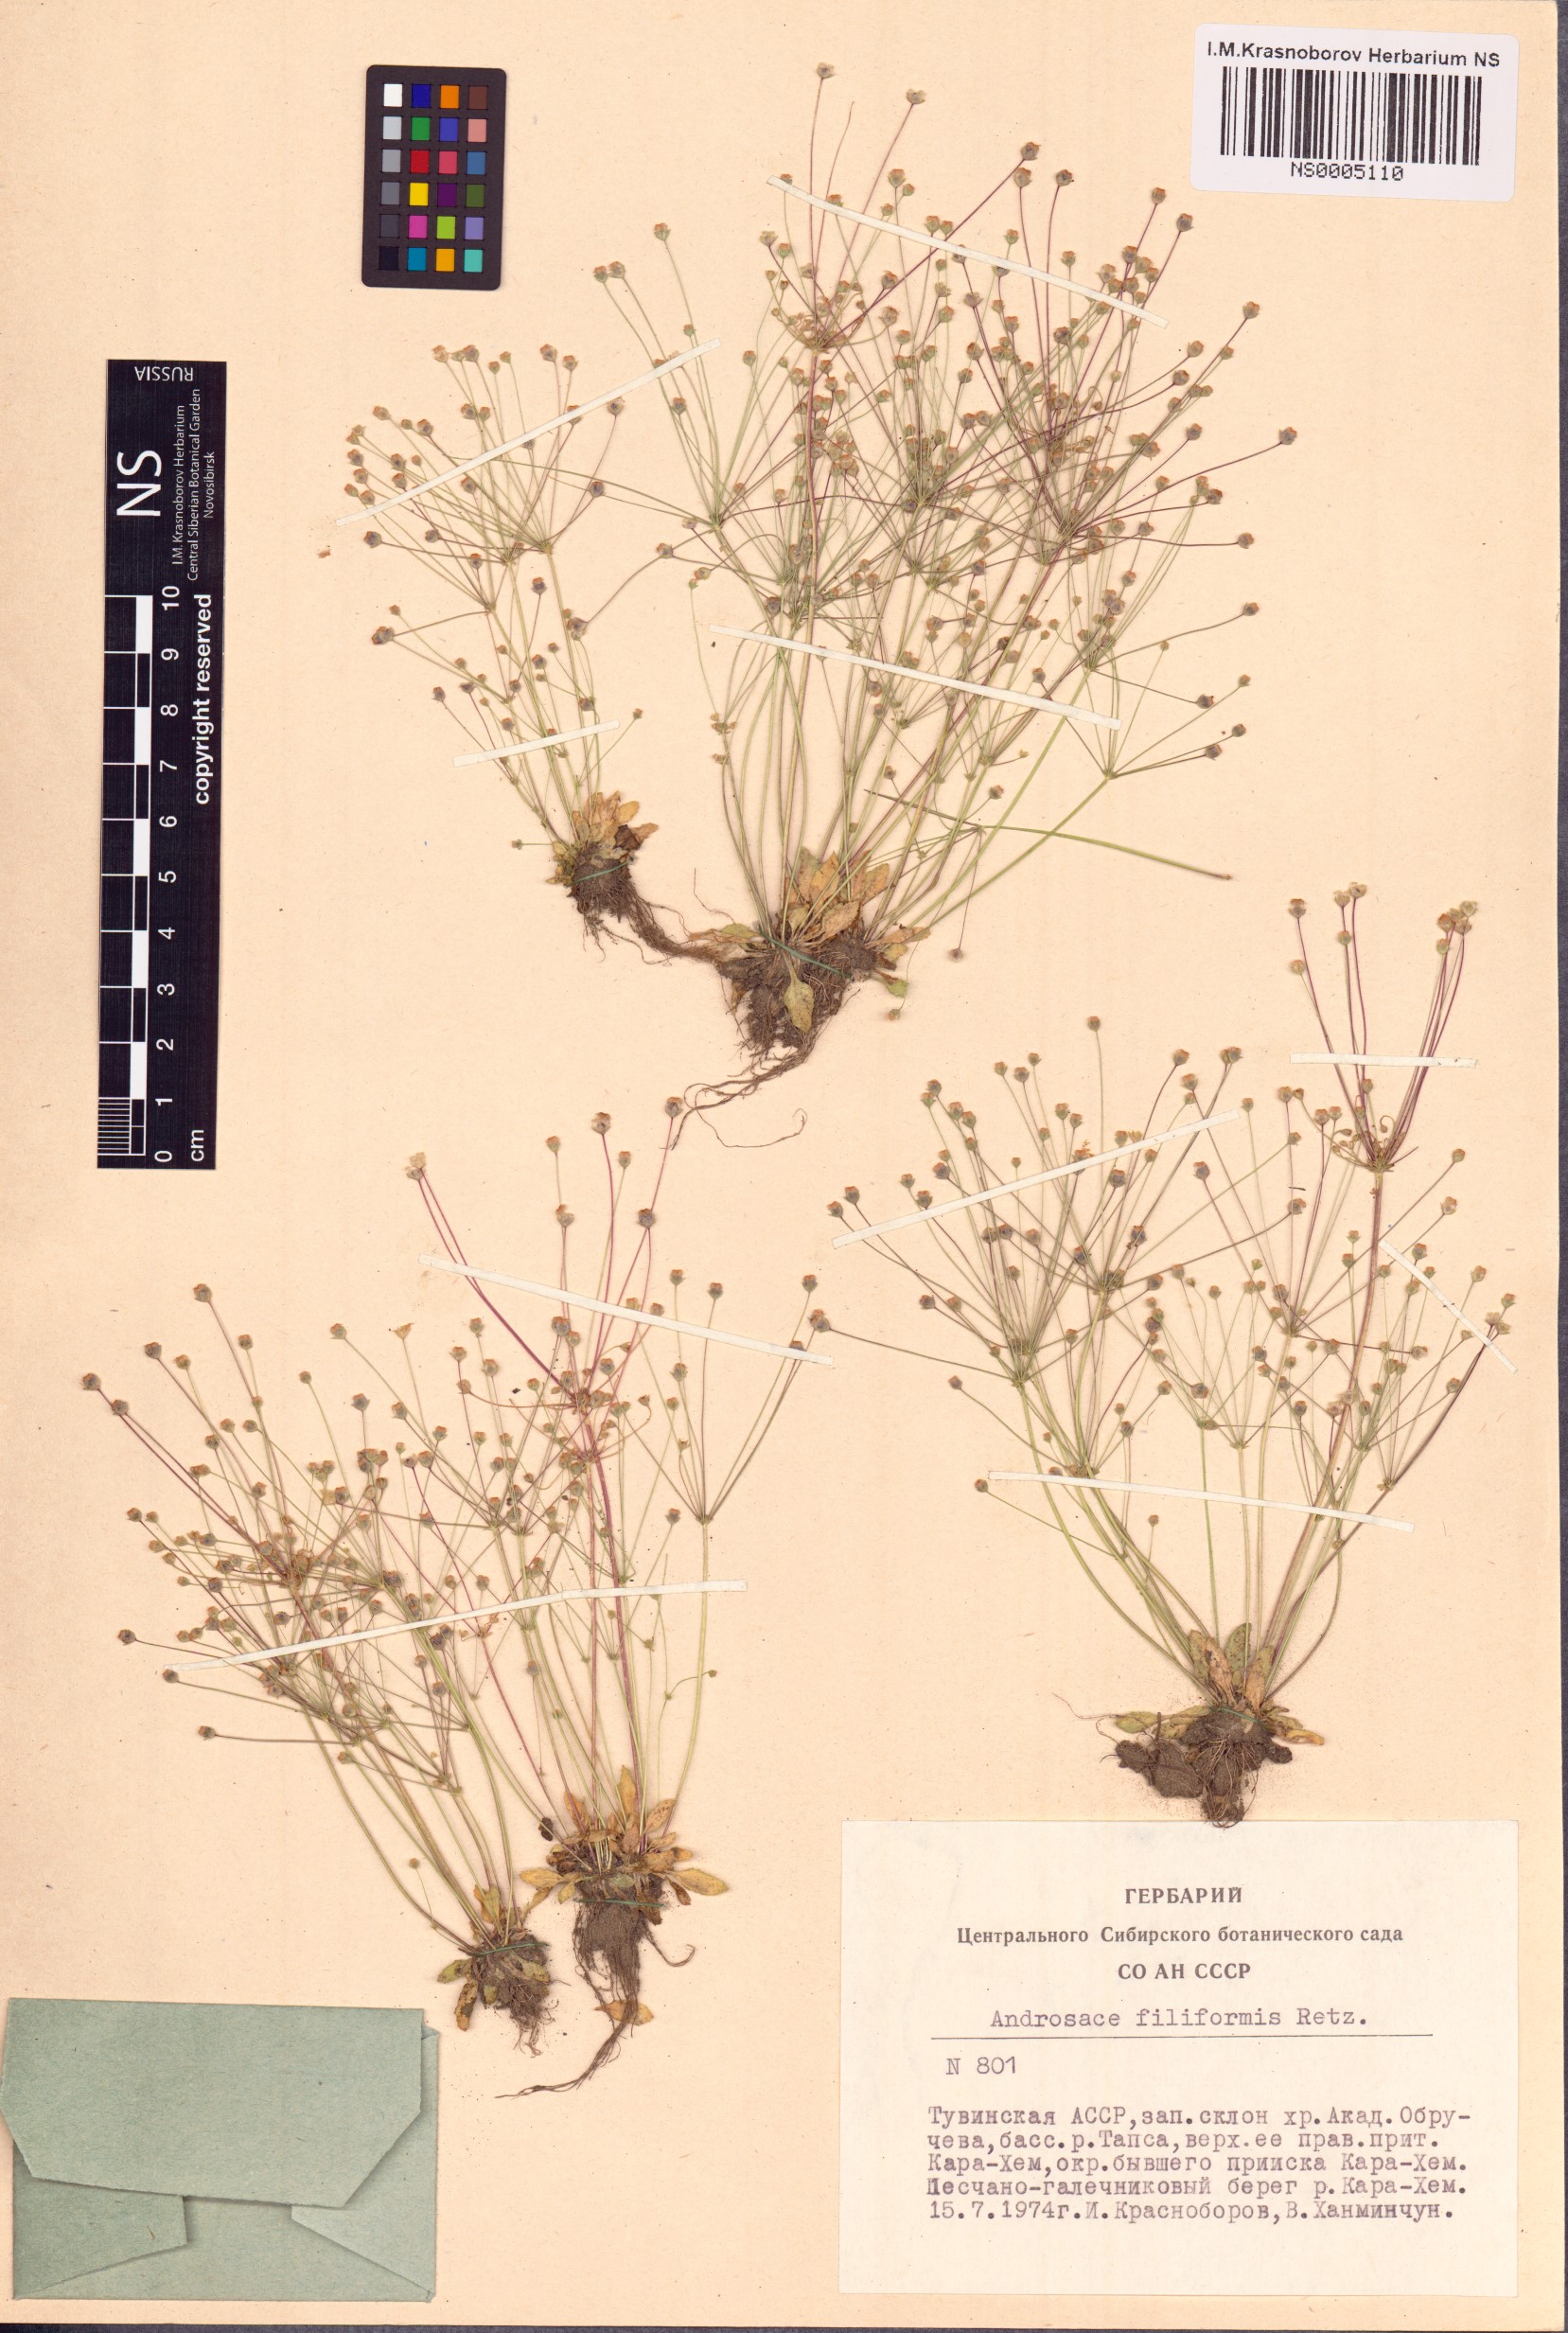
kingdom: Plantae
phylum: Tracheophyta
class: Magnoliopsida
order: Ericales
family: Primulaceae
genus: Androsace
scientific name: Androsace filiformis
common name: Filiform rock jasmine
